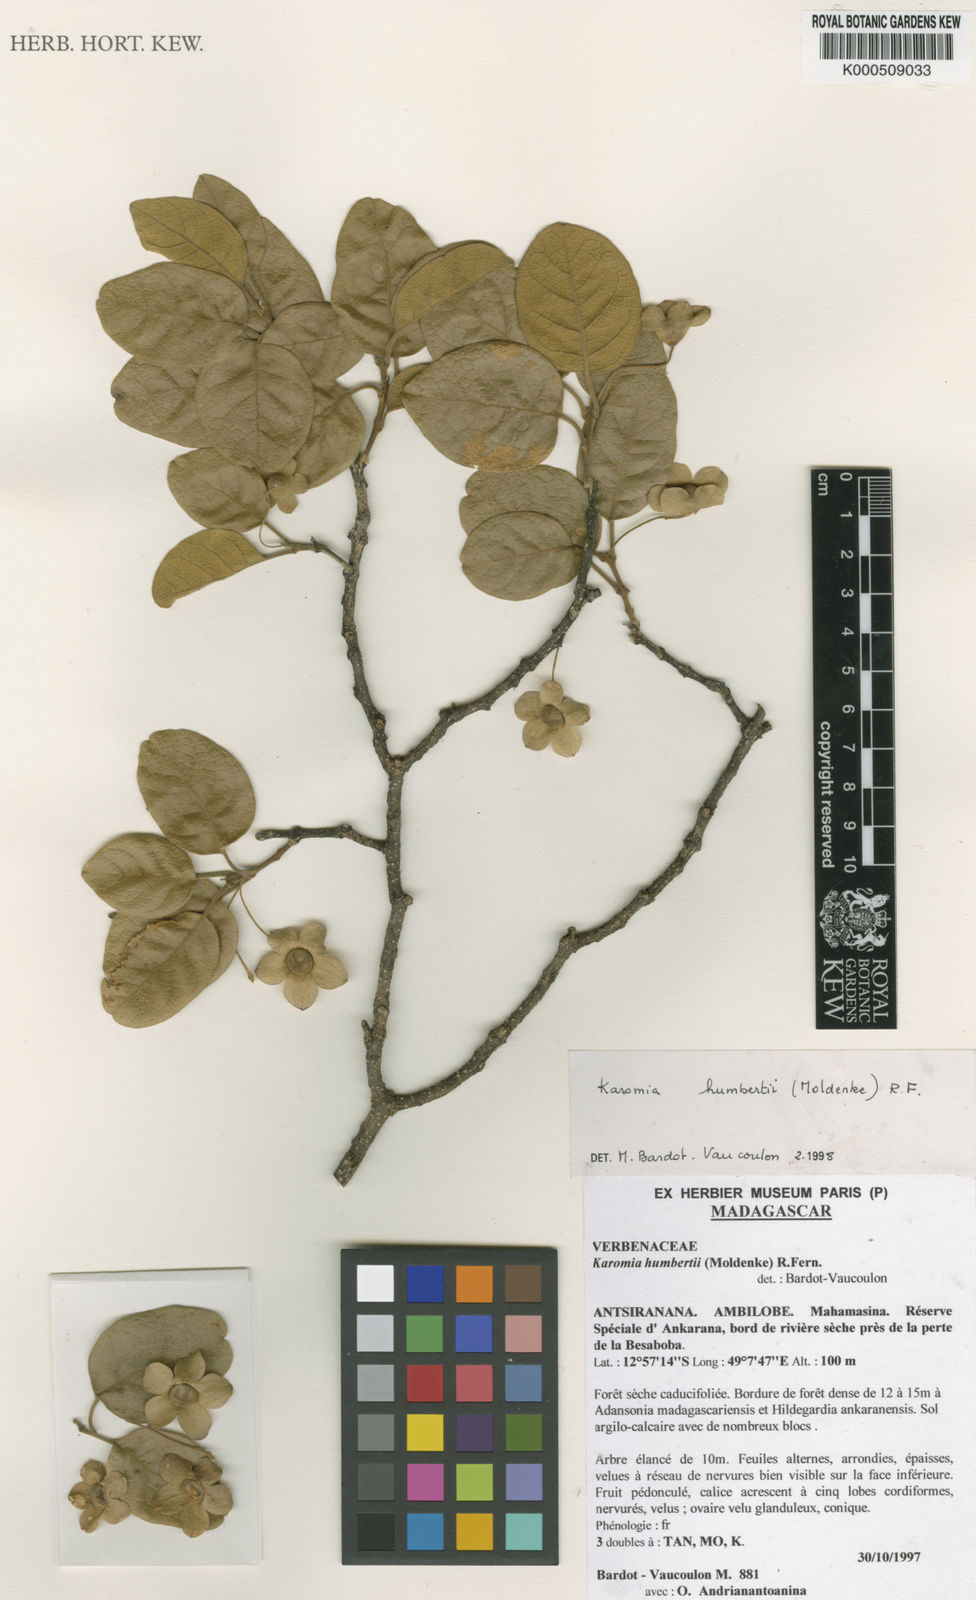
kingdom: Plantae
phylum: Tracheophyta
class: Magnoliopsida
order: Lamiales
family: Lamiaceae
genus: Karomia
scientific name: Karomia humbertii
